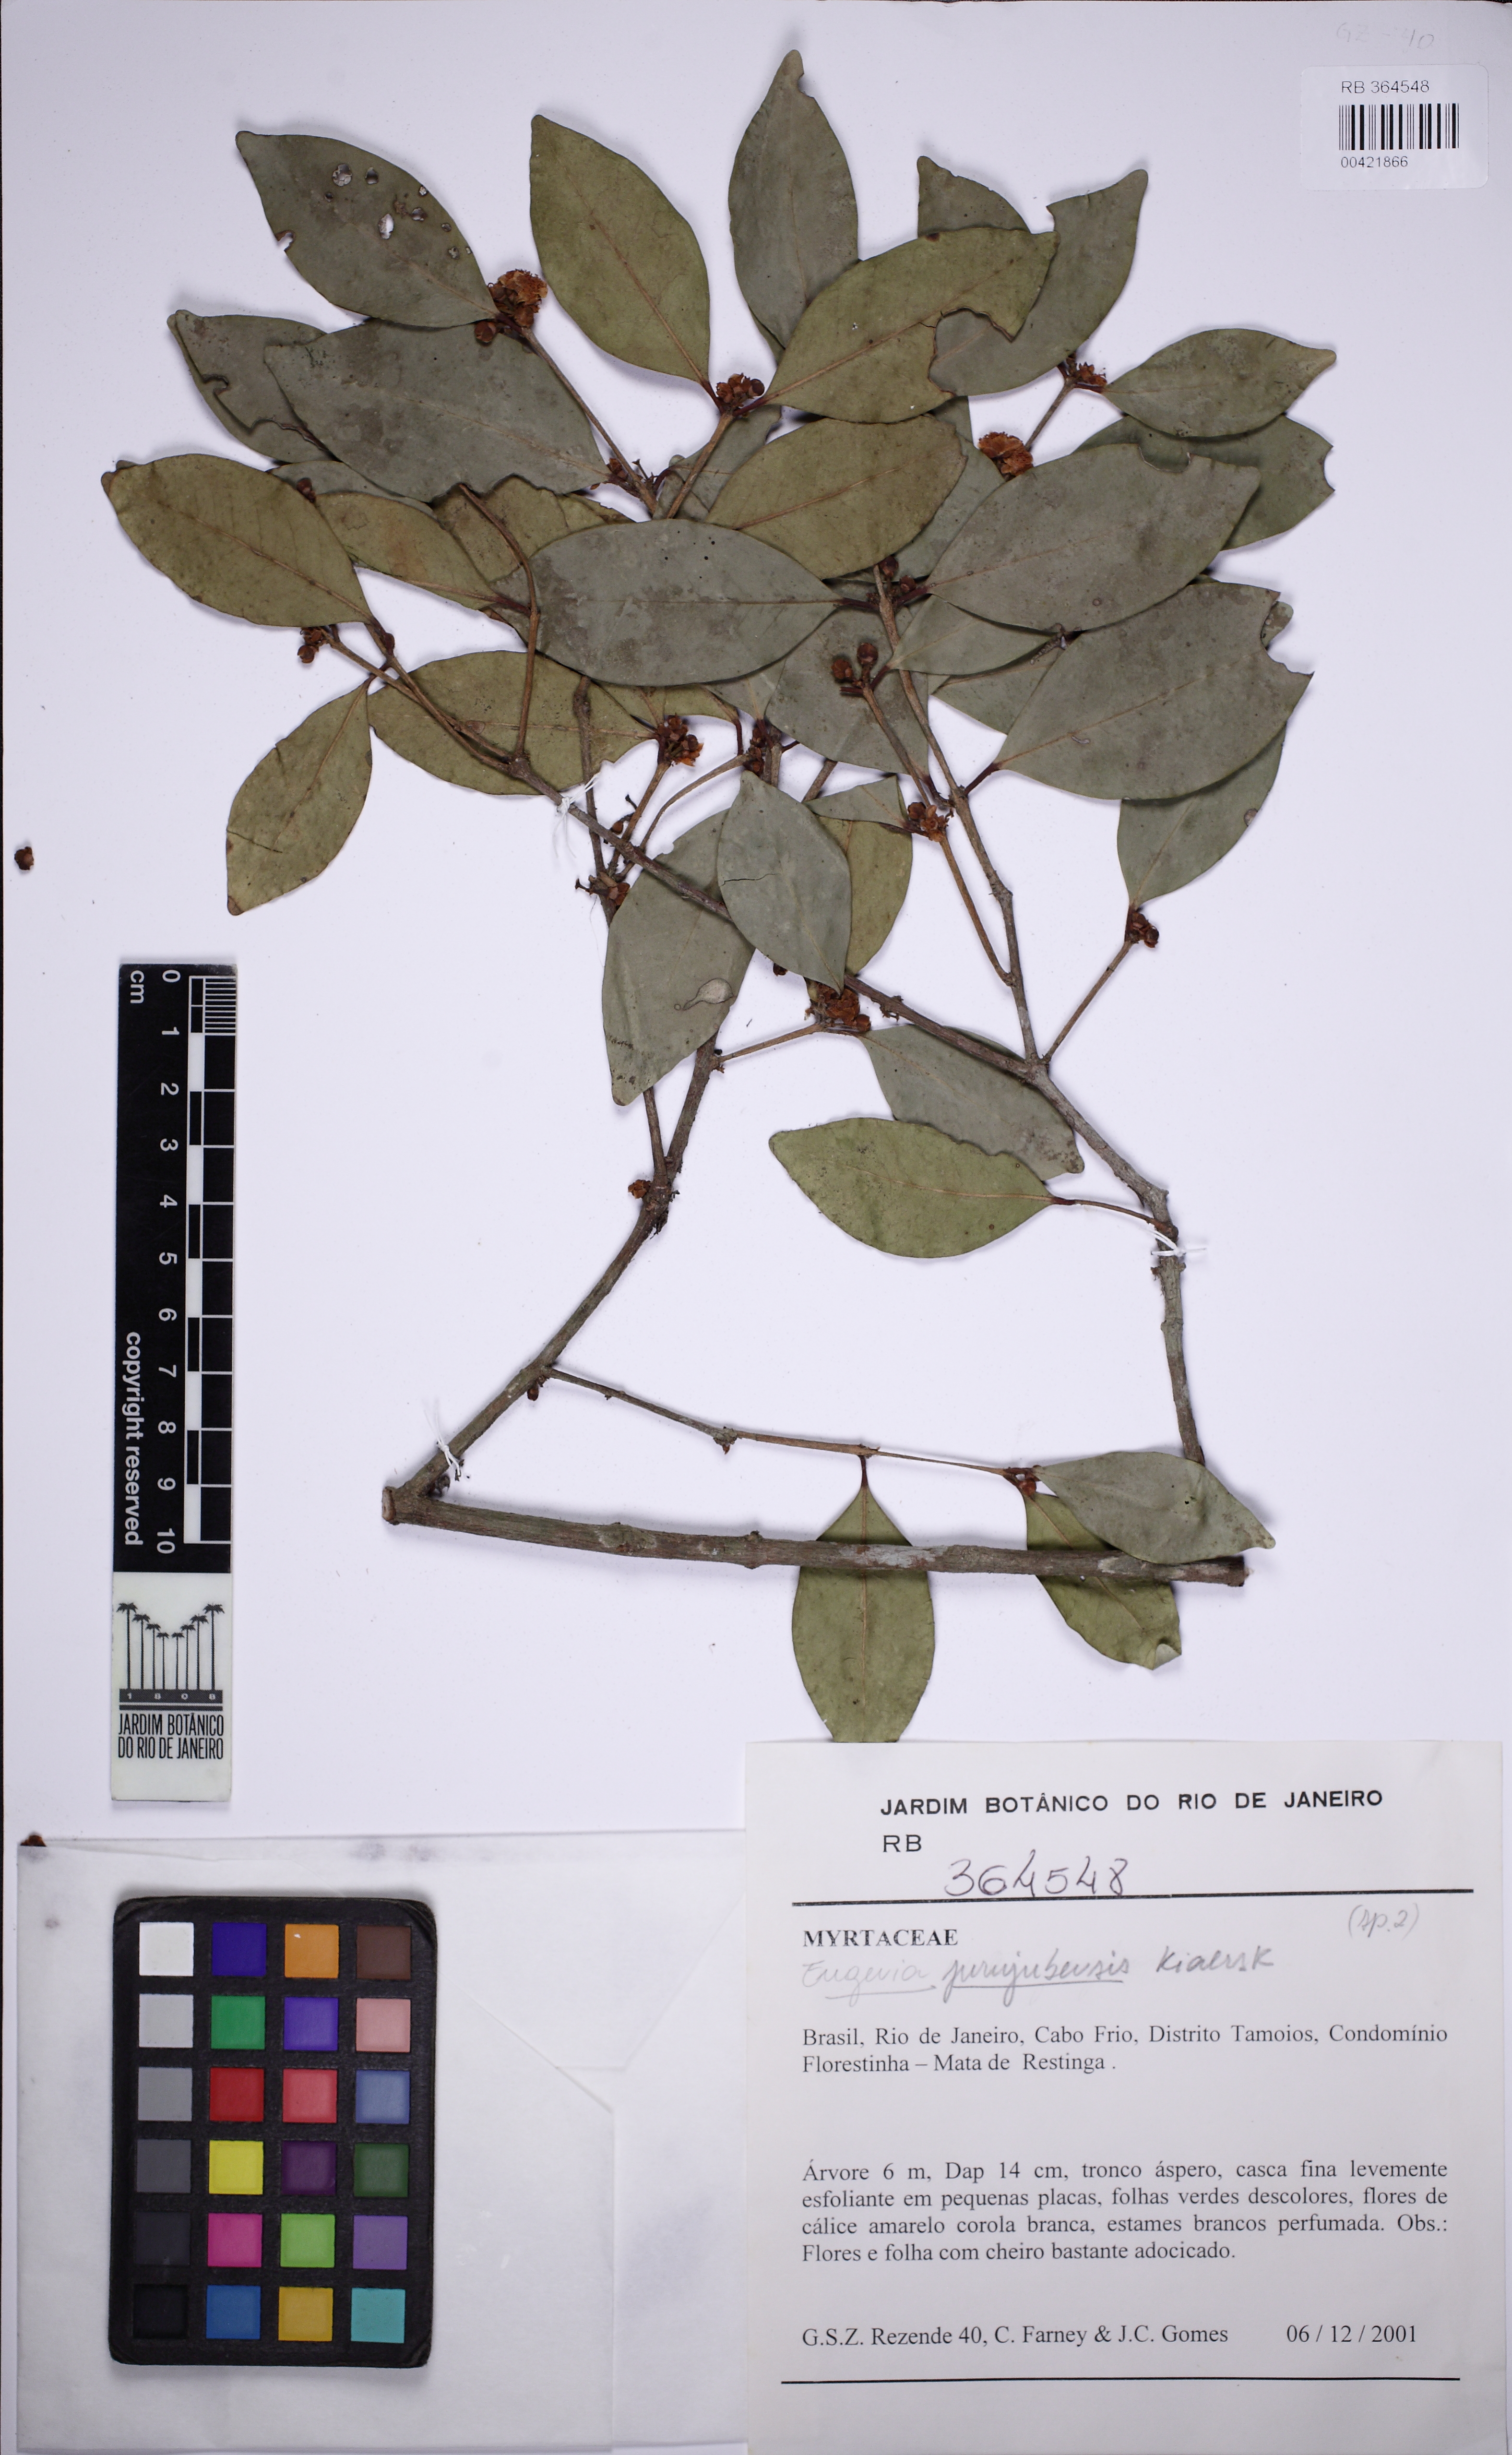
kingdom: Plantae
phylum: Tracheophyta
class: Magnoliopsida
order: Myrtales
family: Myrtaceae
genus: Eugenia
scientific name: Eugenia prasina
